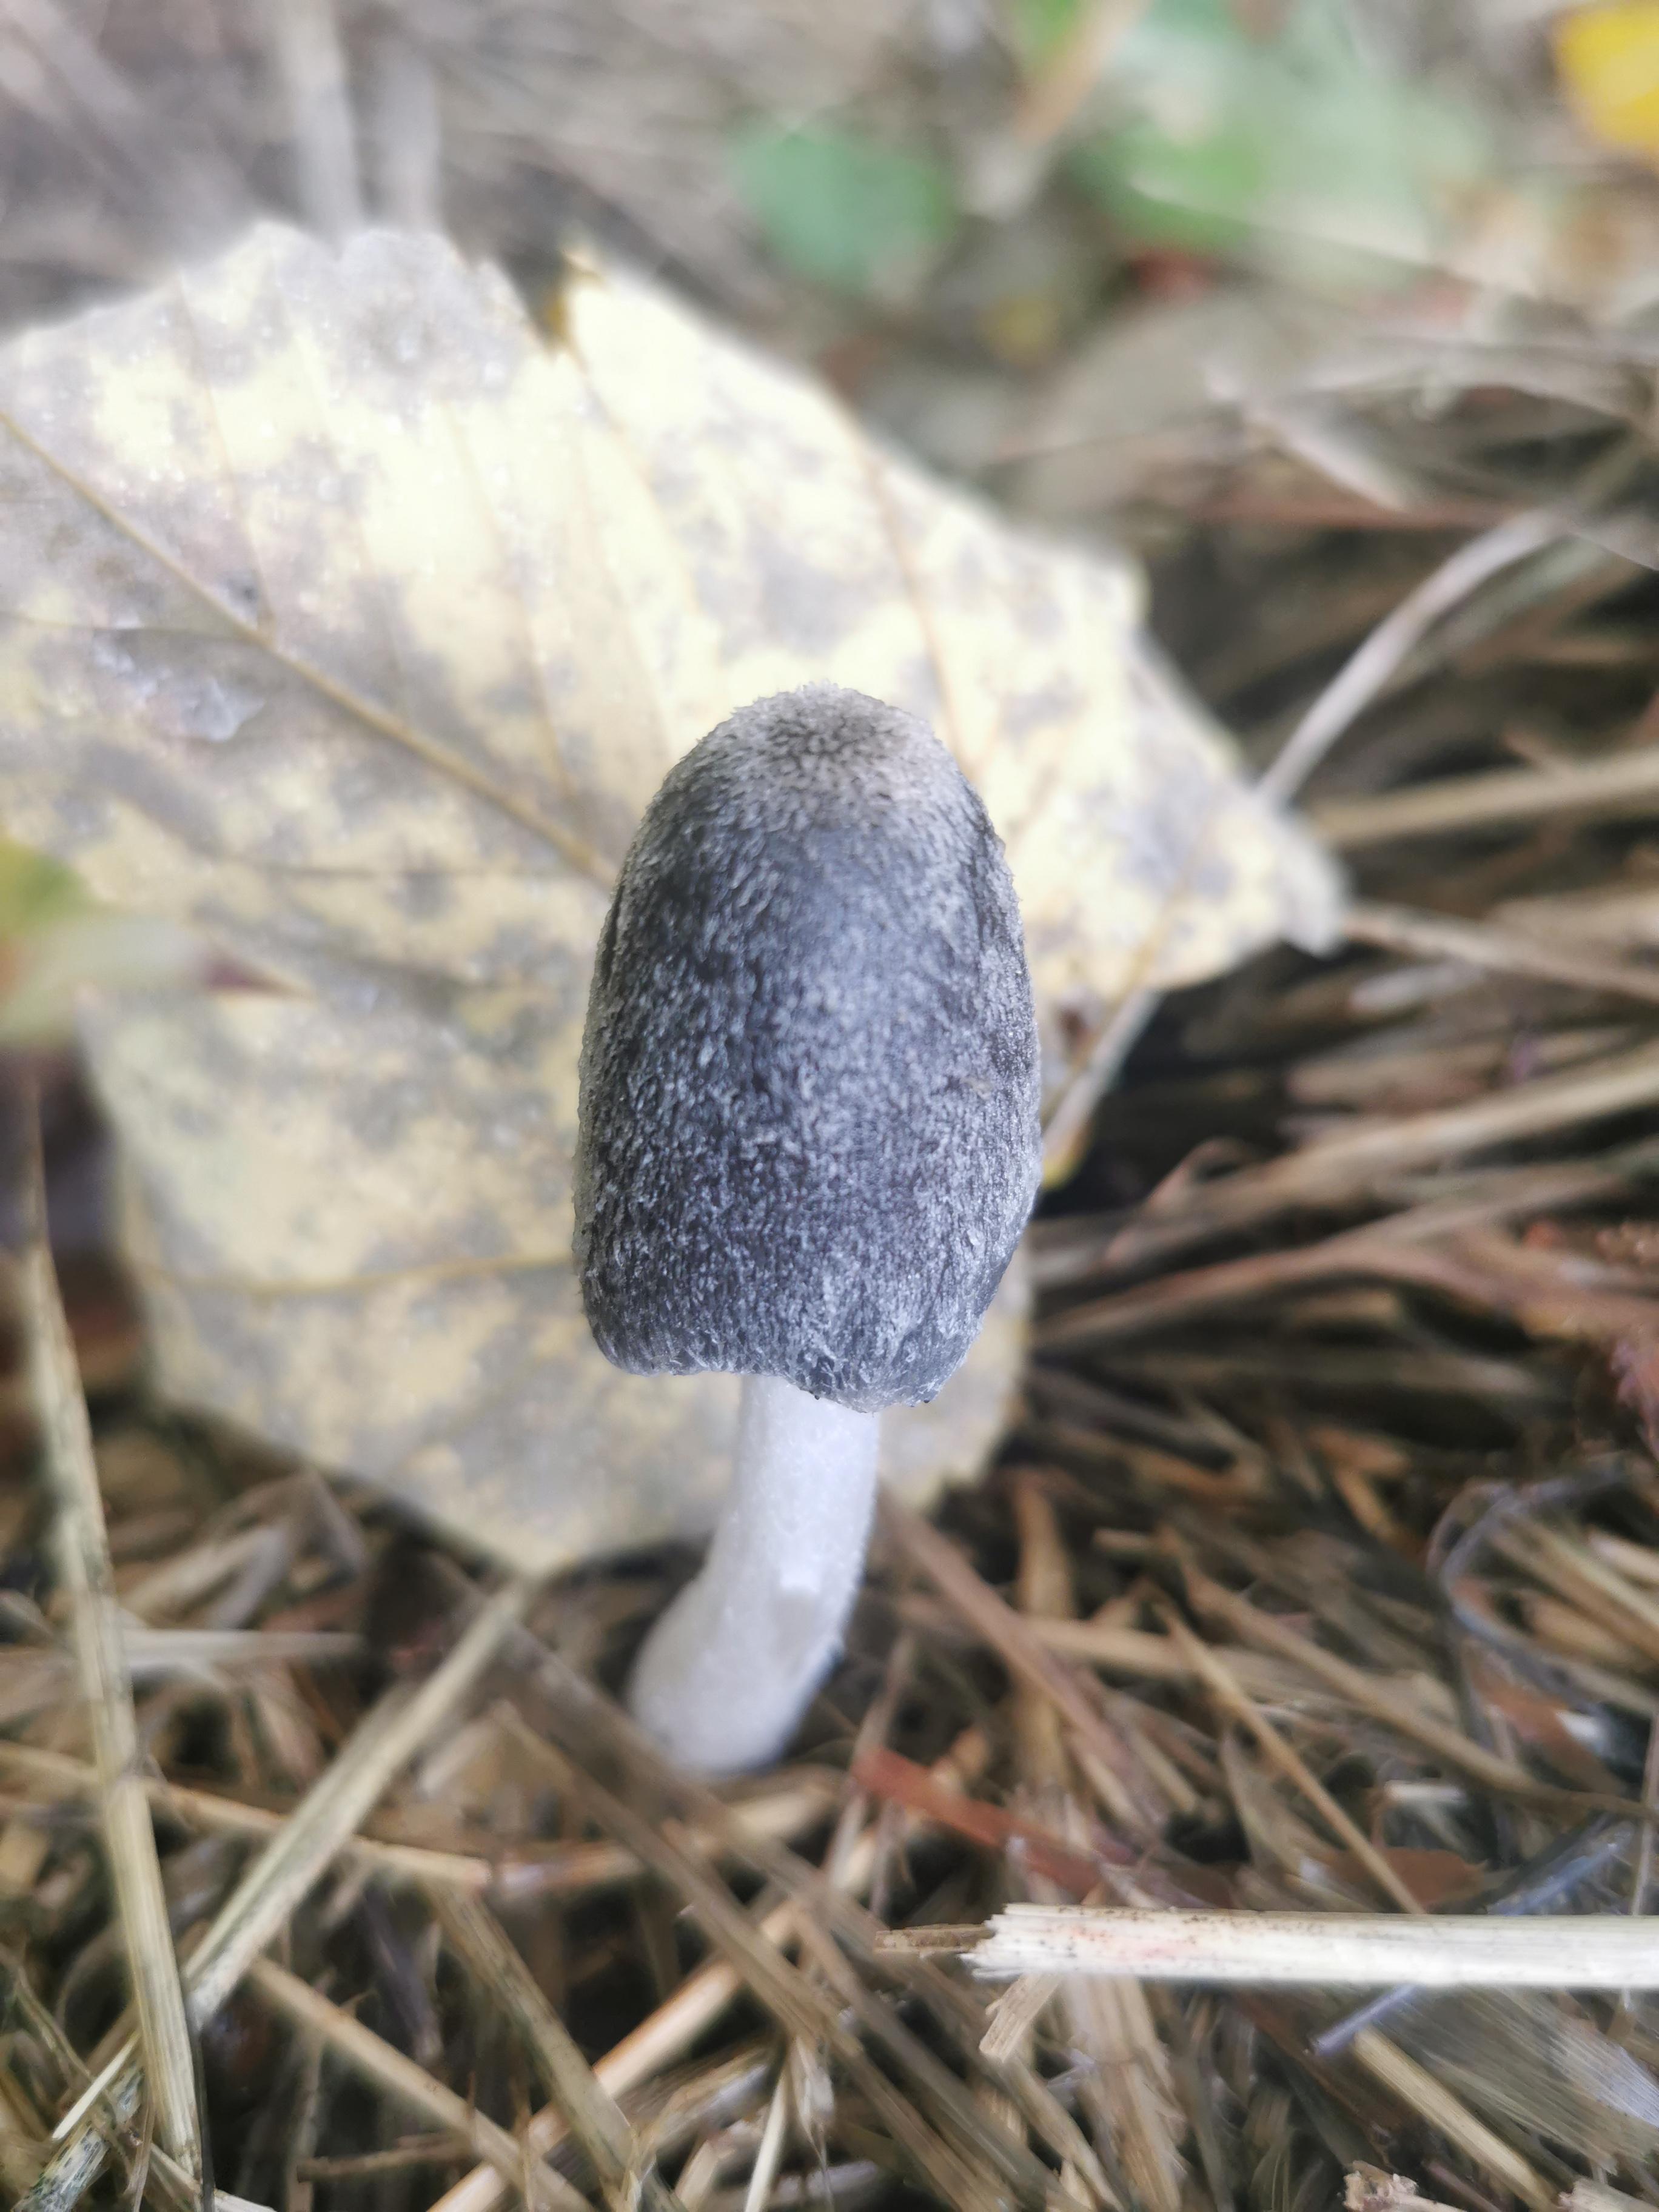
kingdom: Fungi
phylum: Basidiomycota
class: Agaricomycetes
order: Agaricales
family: Psathyrellaceae
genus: Coprinopsis
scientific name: Coprinopsis macrocephala
